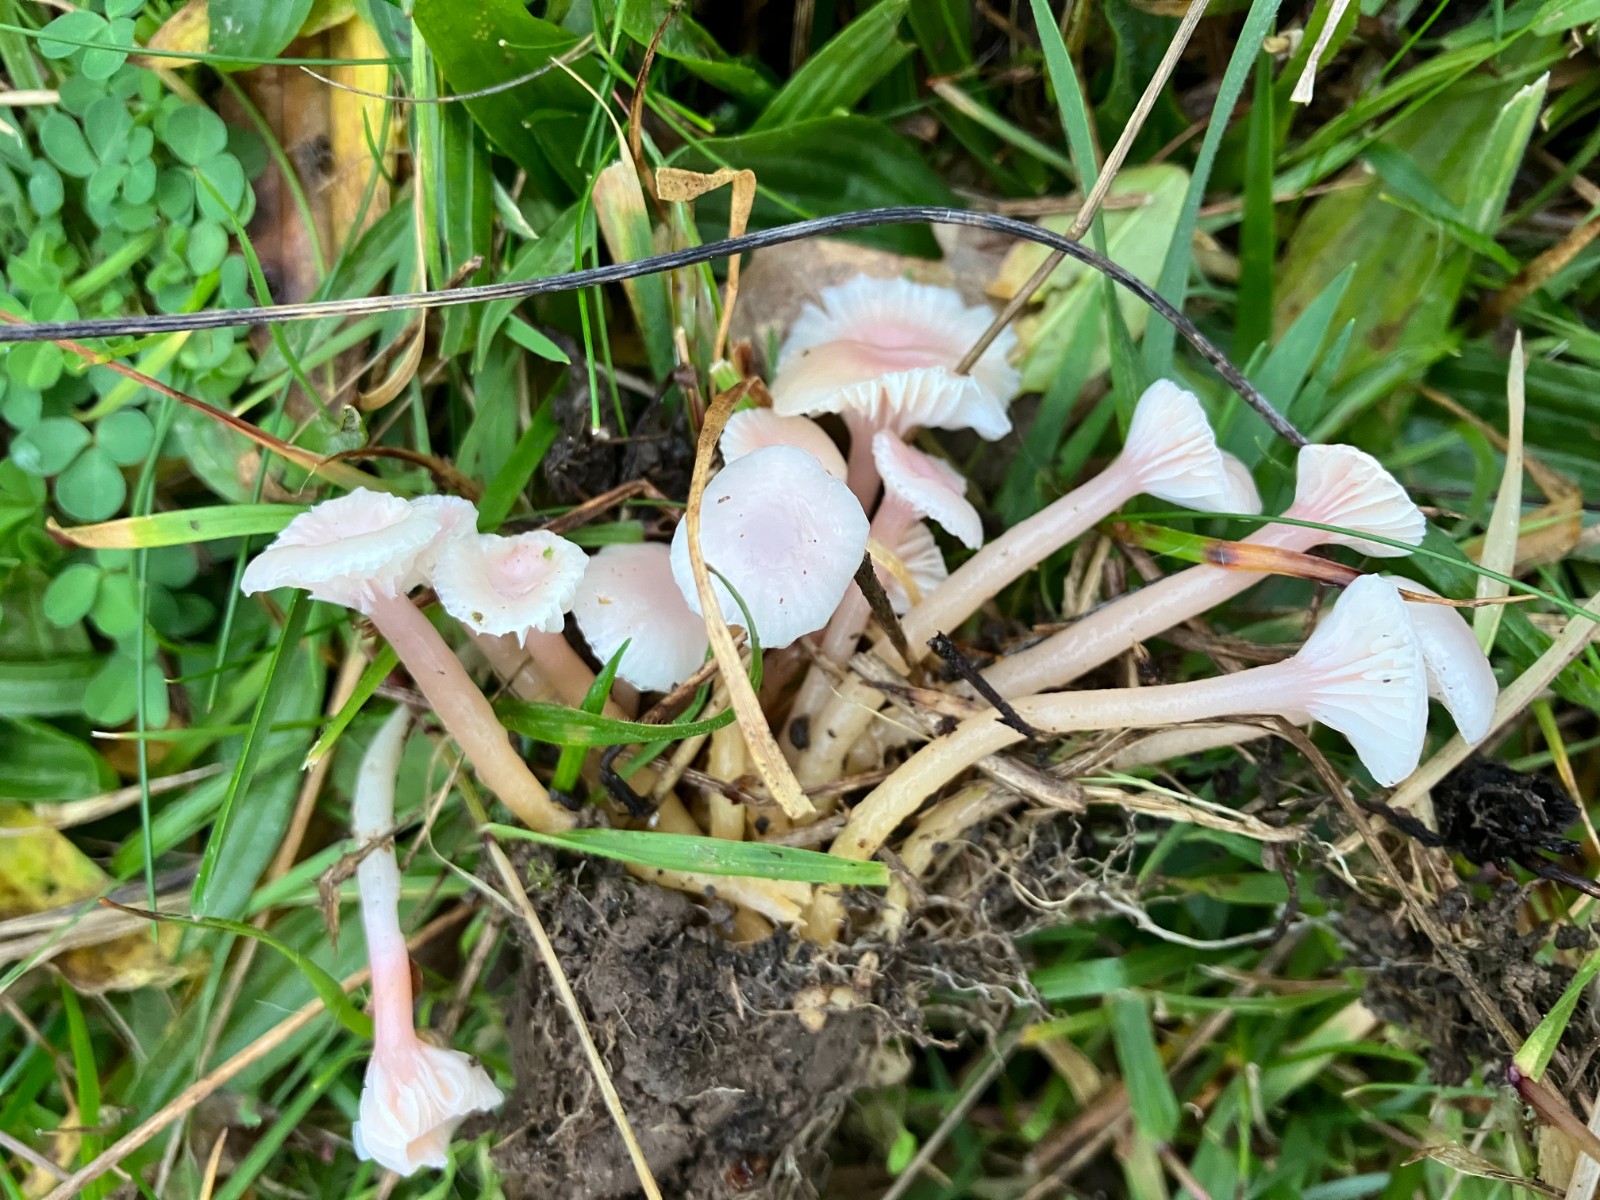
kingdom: Fungi
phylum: Basidiomycota
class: Agaricomycetes
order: Agaricales
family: Hygrophoraceae
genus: Gliophorus
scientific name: Gliophorus laetus
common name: brusk-vokshat
